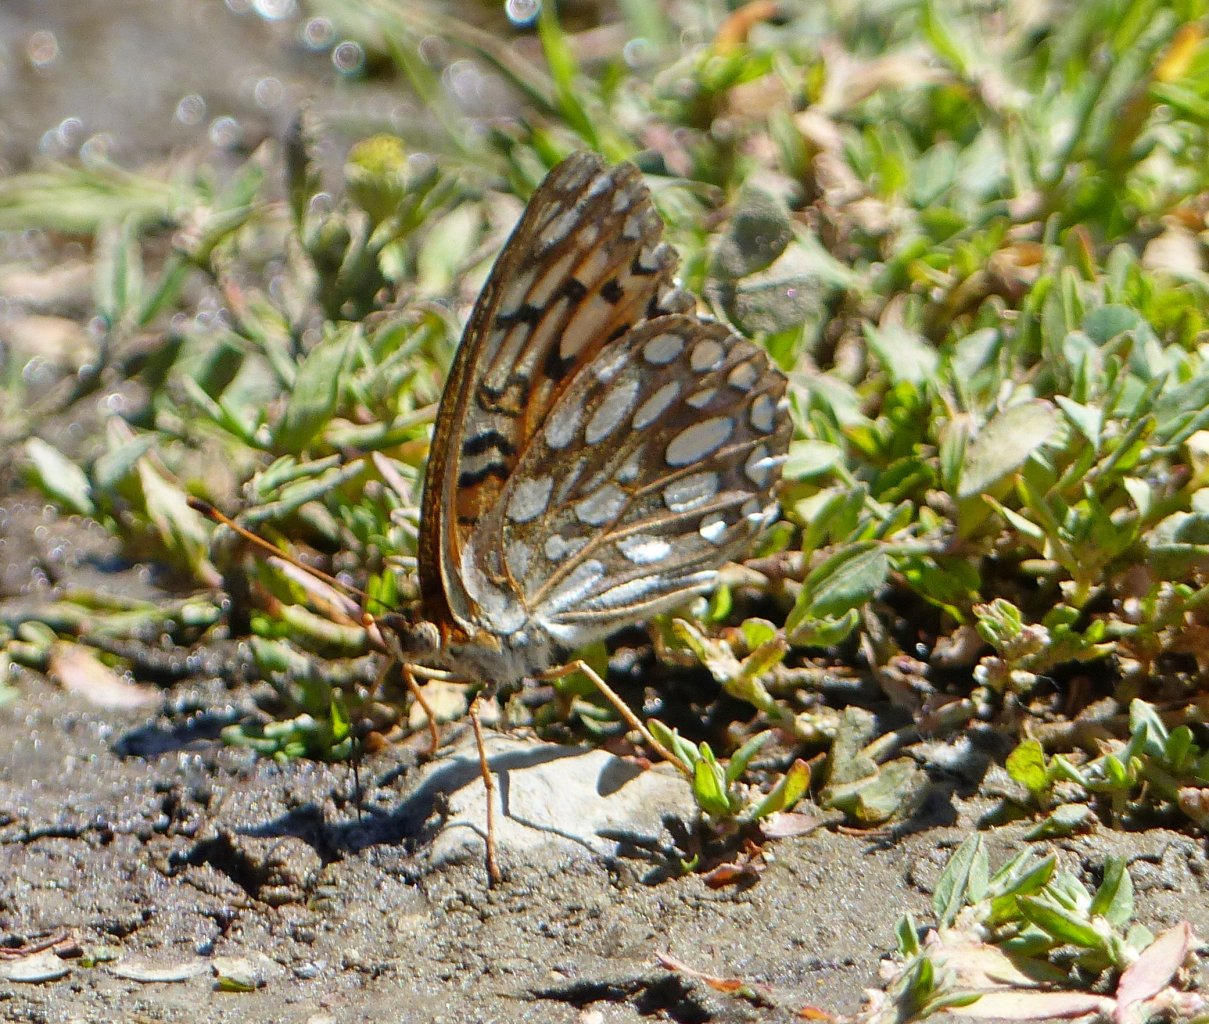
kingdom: Animalia
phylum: Arthropoda
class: Insecta
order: Lepidoptera
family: Nymphalidae
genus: Speyeria
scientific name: Speyeria zerene
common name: Zerene Fritillary
